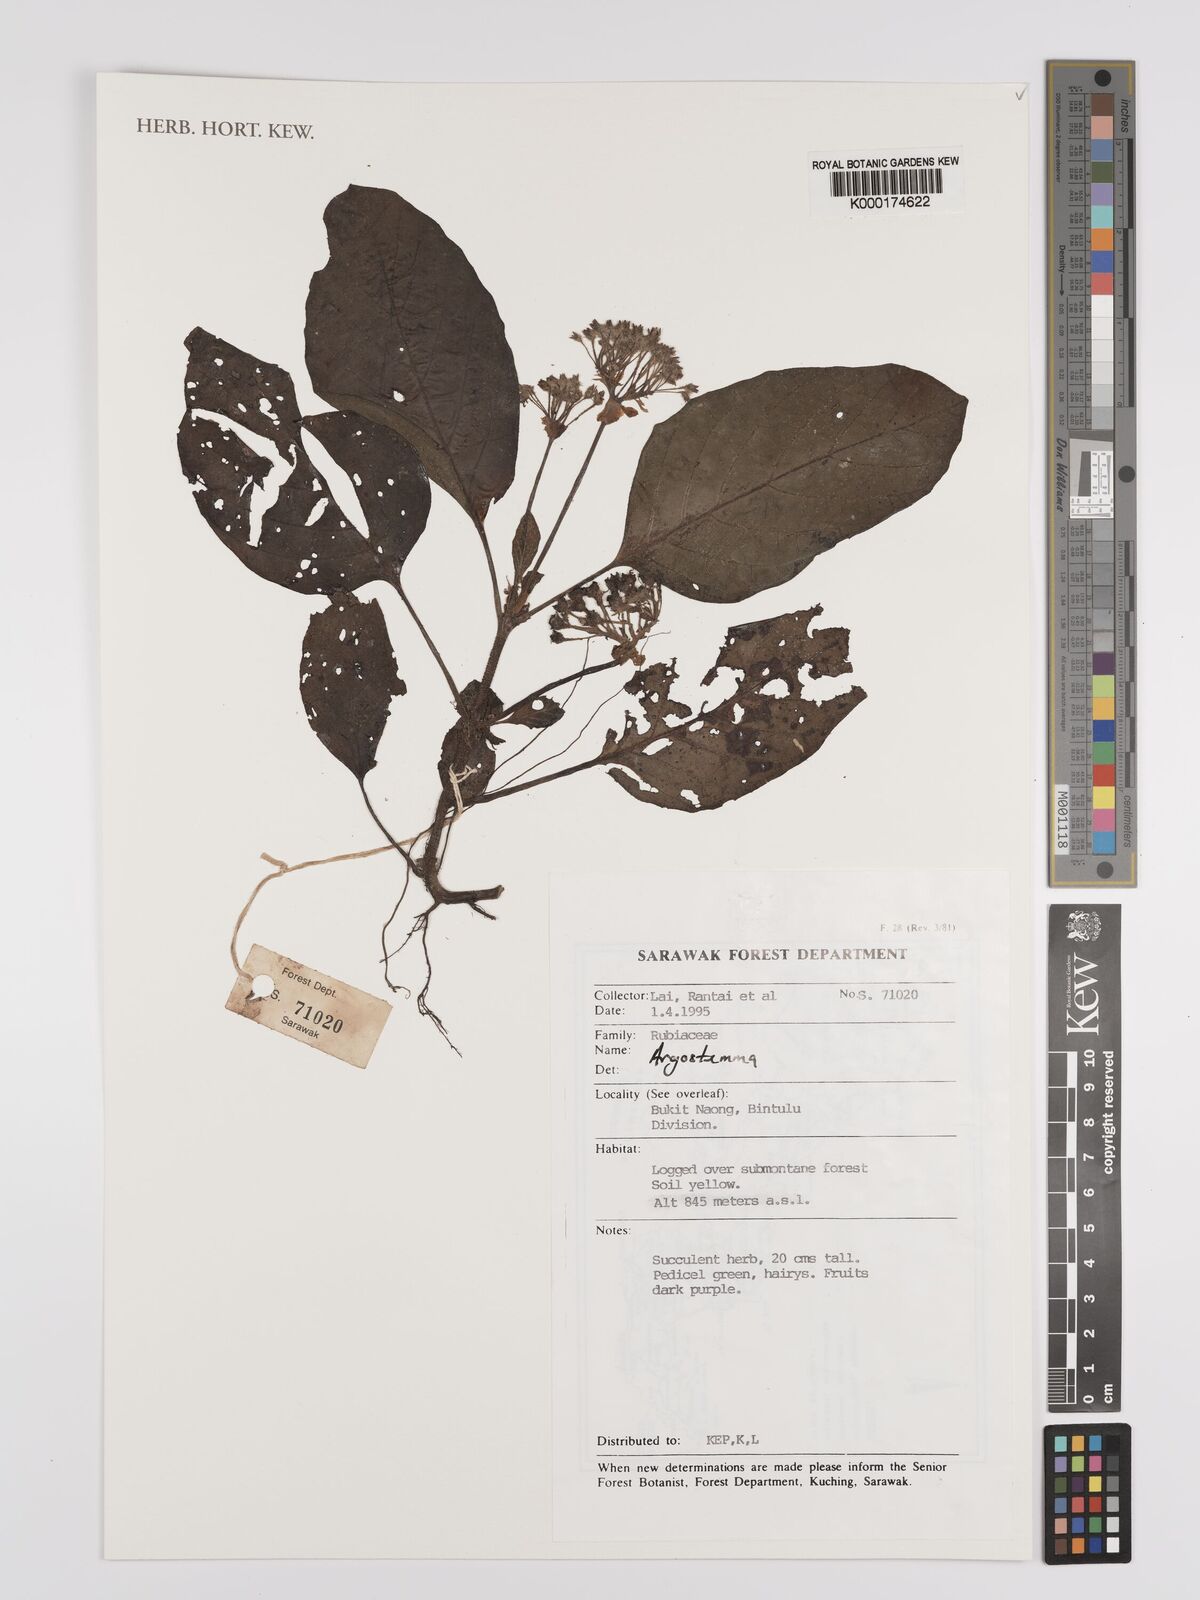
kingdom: Plantae
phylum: Tracheophyta
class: Magnoliopsida
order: Gentianales
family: Rubiaceae
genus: Argostemma
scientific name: Argostemma
